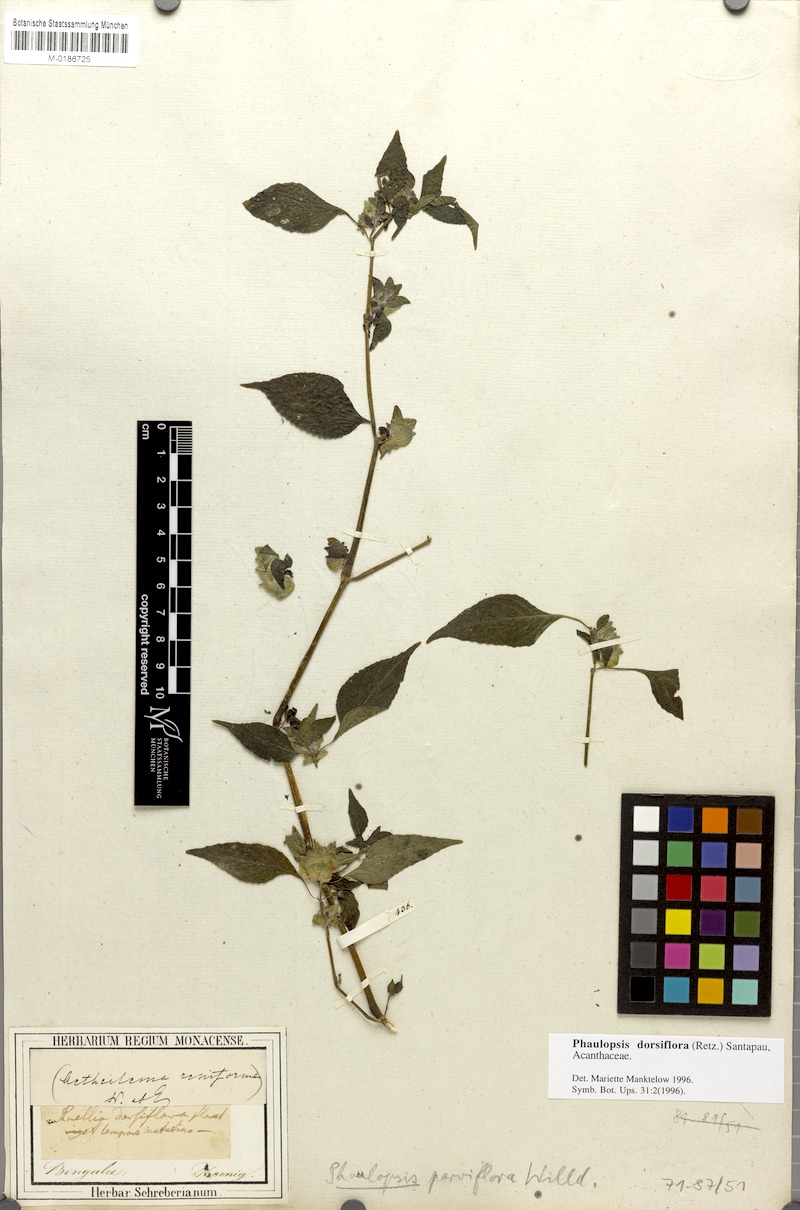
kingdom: Plantae
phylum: Tracheophyta
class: Magnoliopsida
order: Lamiales
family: Acanthaceae
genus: Phaulopsis
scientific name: Phaulopsis dorsiflora
